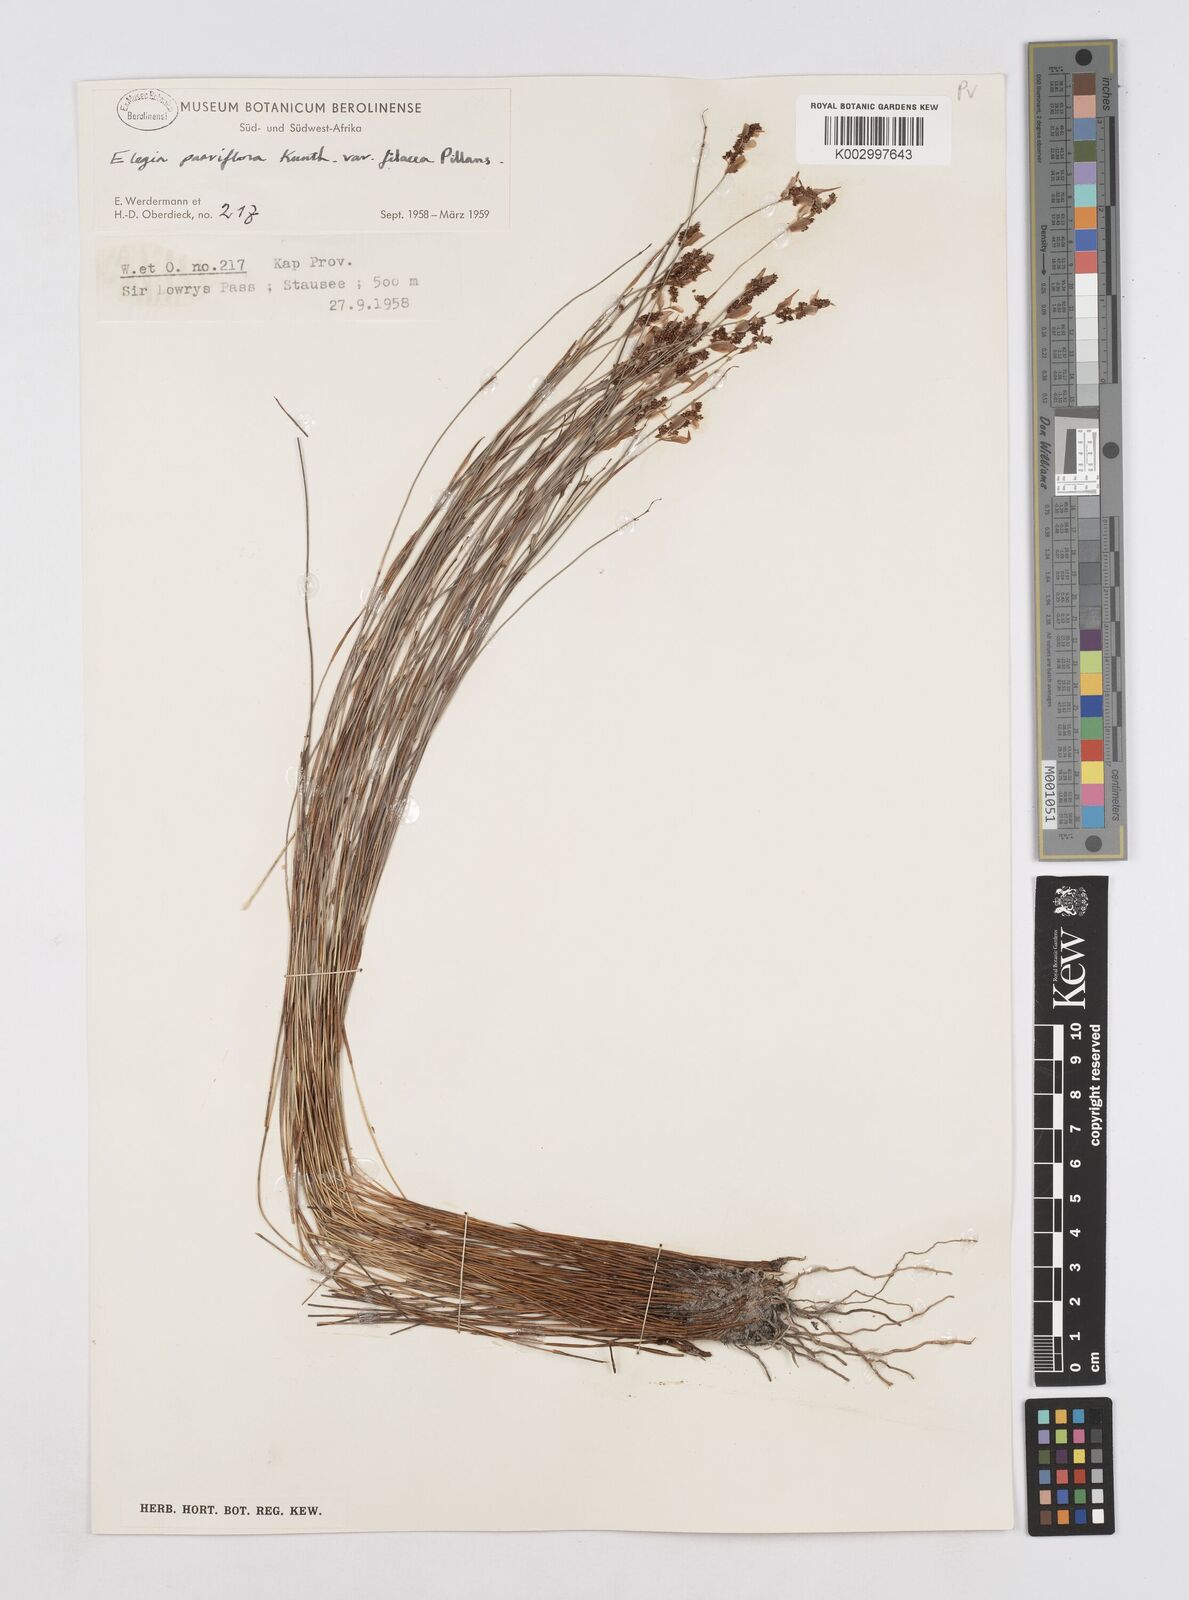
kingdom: Plantae
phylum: Tracheophyta
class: Liliopsida
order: Poales
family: Restionaceae
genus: Cannomois
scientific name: Cannomois parviflora
